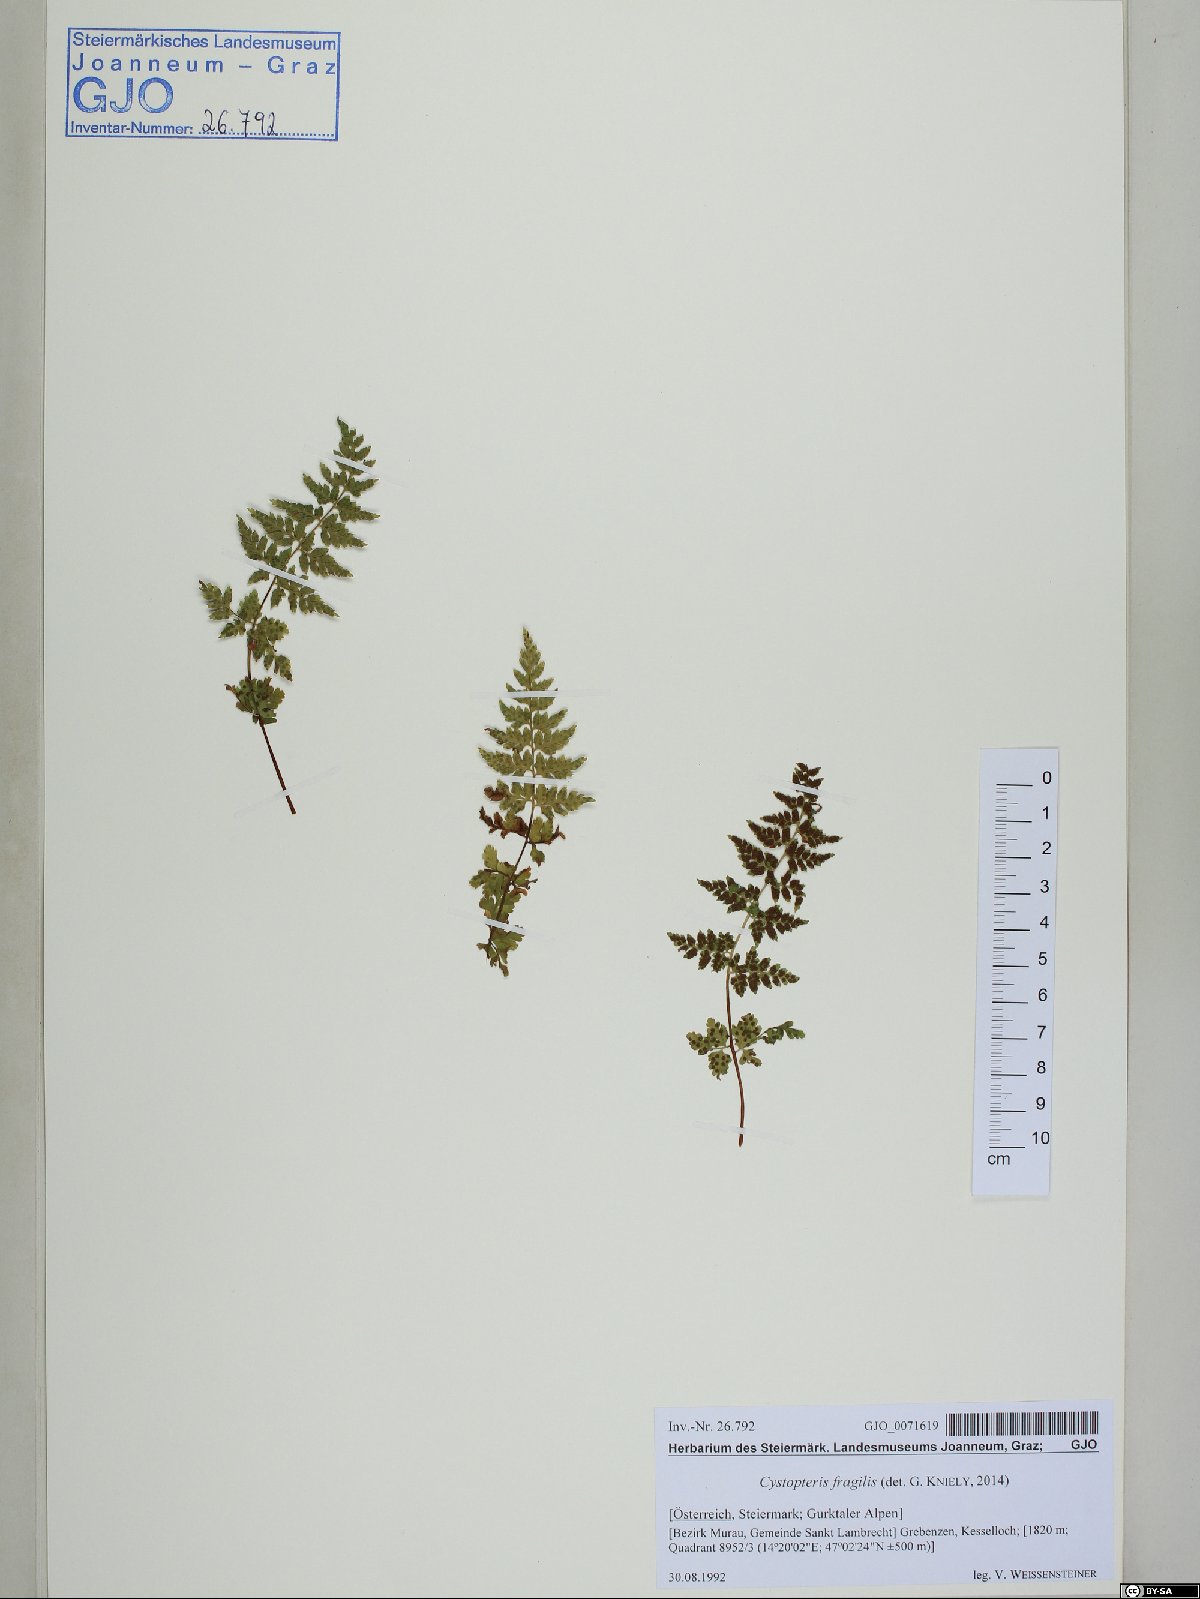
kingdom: Plantae
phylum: Tracheophyta
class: Polypodiopsida
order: Polypodiales
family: Cystopteridaceae
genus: Cystopteris
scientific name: Cystopteris fragilis
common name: Brittle bladder fern
